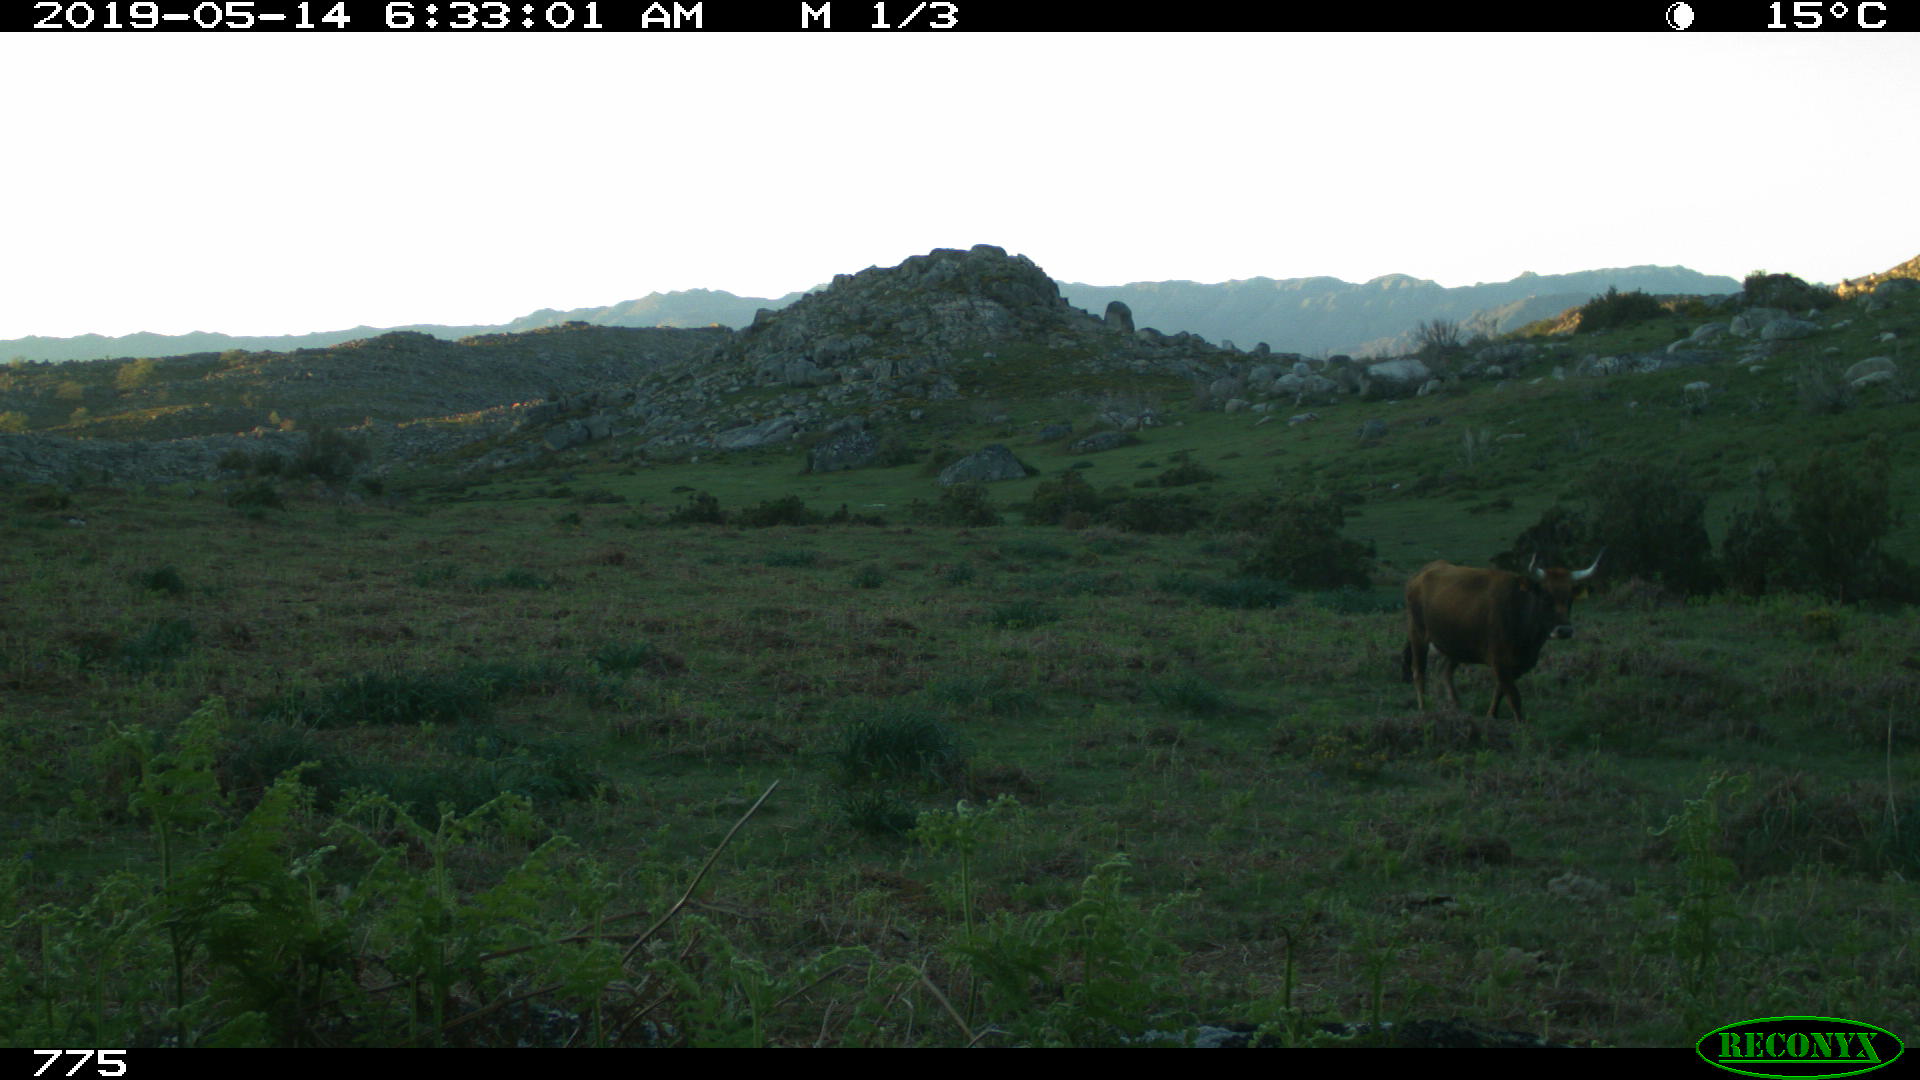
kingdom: Animalia
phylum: Chordata
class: Mammalia
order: Artiodactyla
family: Bovidae
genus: Bos
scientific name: Bos taurus
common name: Domesticated cattle
